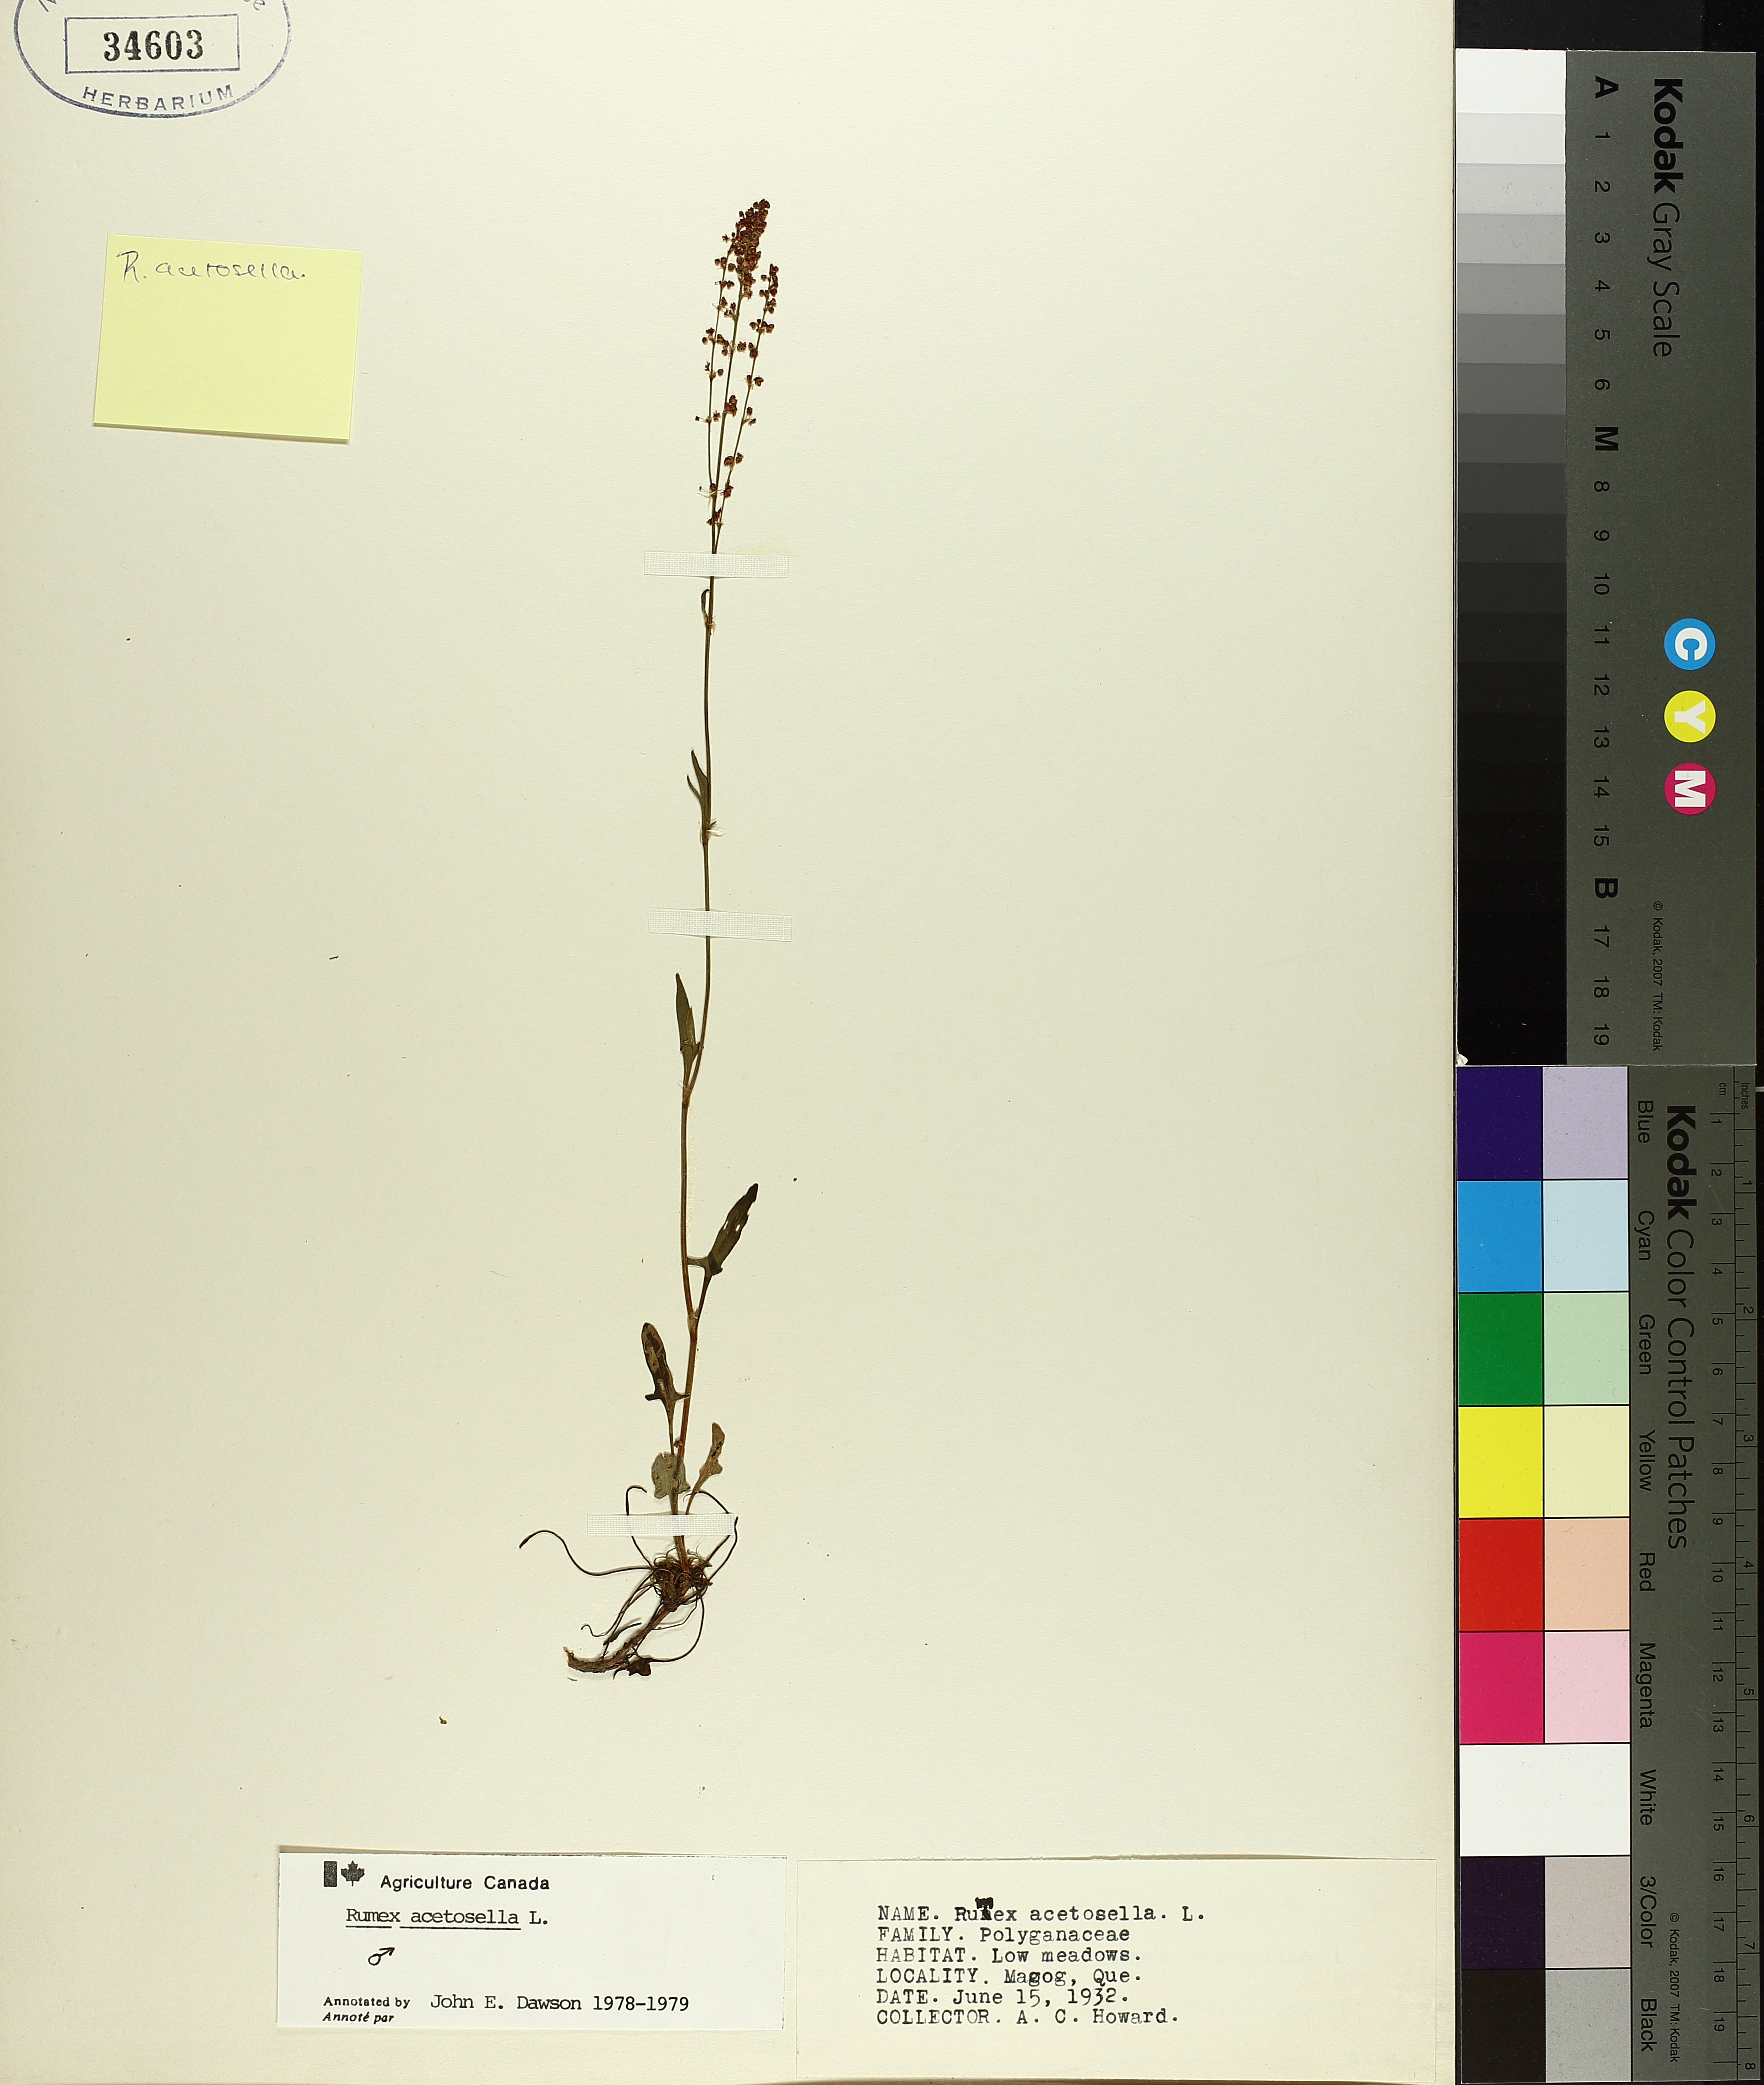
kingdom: Plantae
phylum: Tracheophyta
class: Magnoliopsida
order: Caryophyllales
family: Polygonaceae
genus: Rumex
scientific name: Rumex acetosella
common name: Common sheep sorrel
